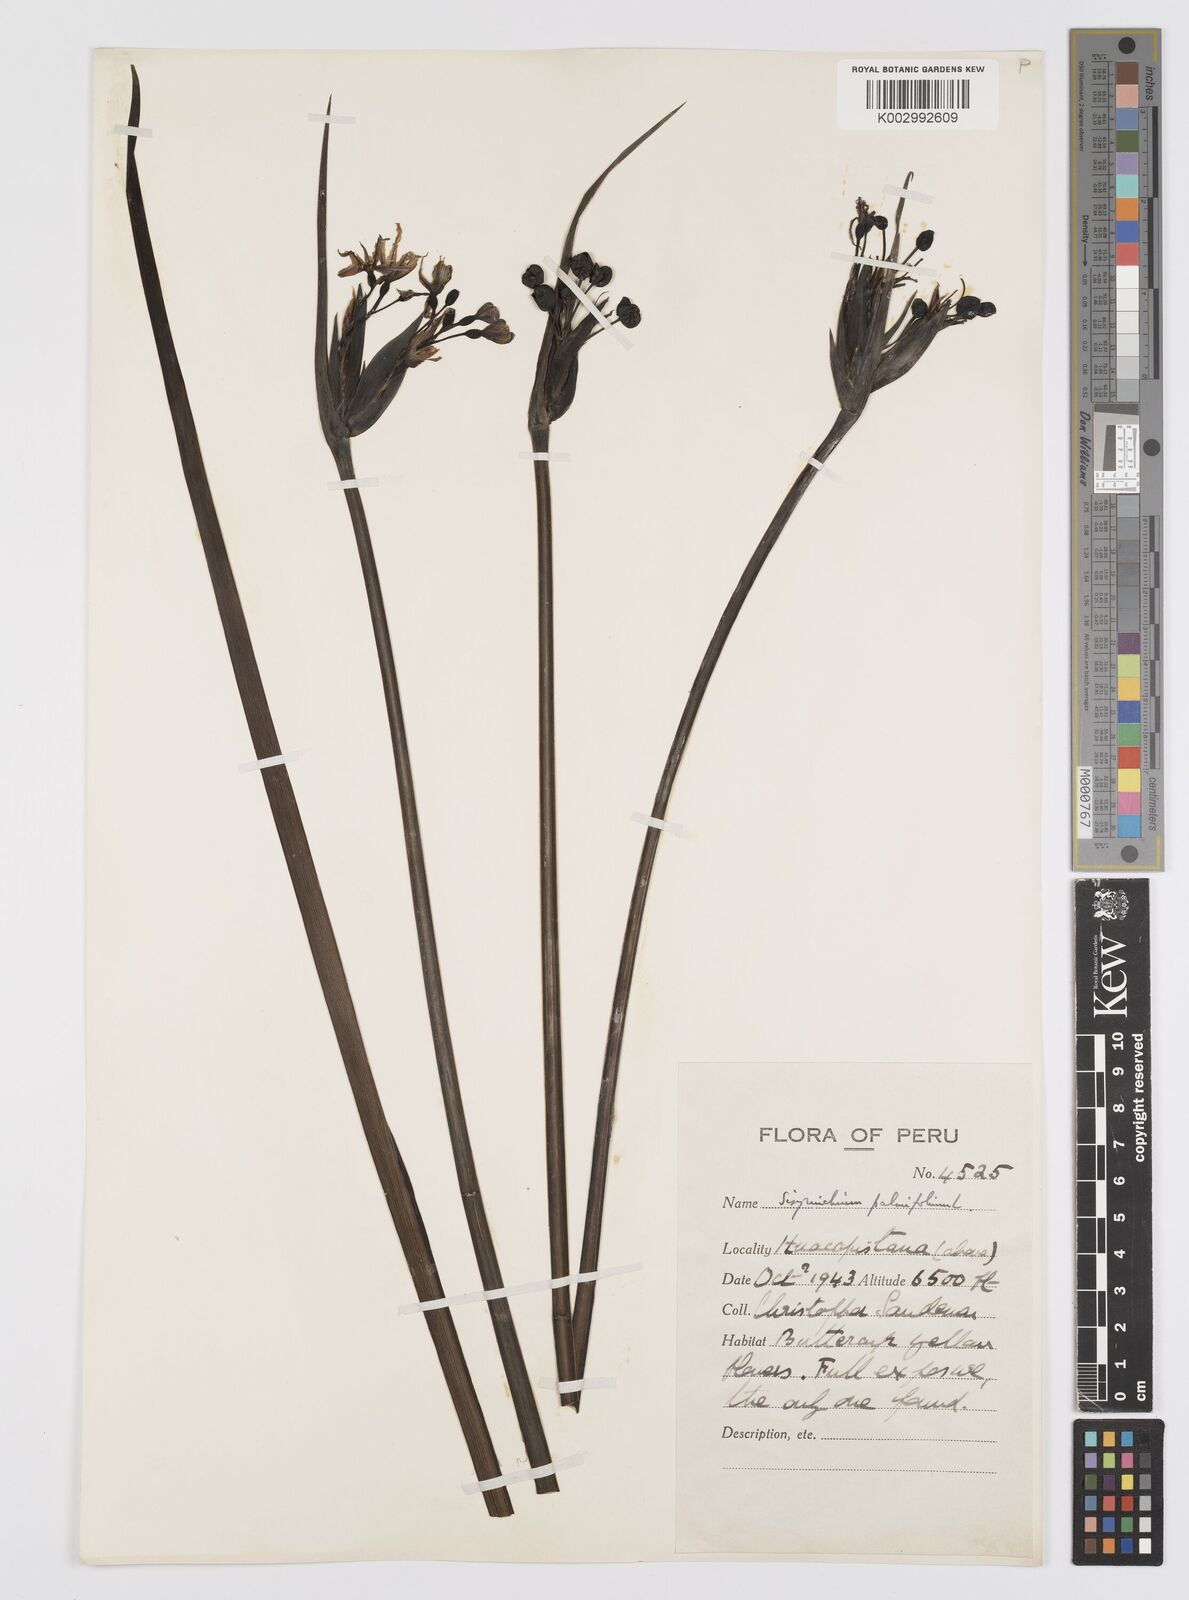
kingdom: Plantae
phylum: Tracheophyta
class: Liliopsida
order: Asparagales
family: Iridaceae
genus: Sisyrinchium
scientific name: Sisyrinchium palmifolium
